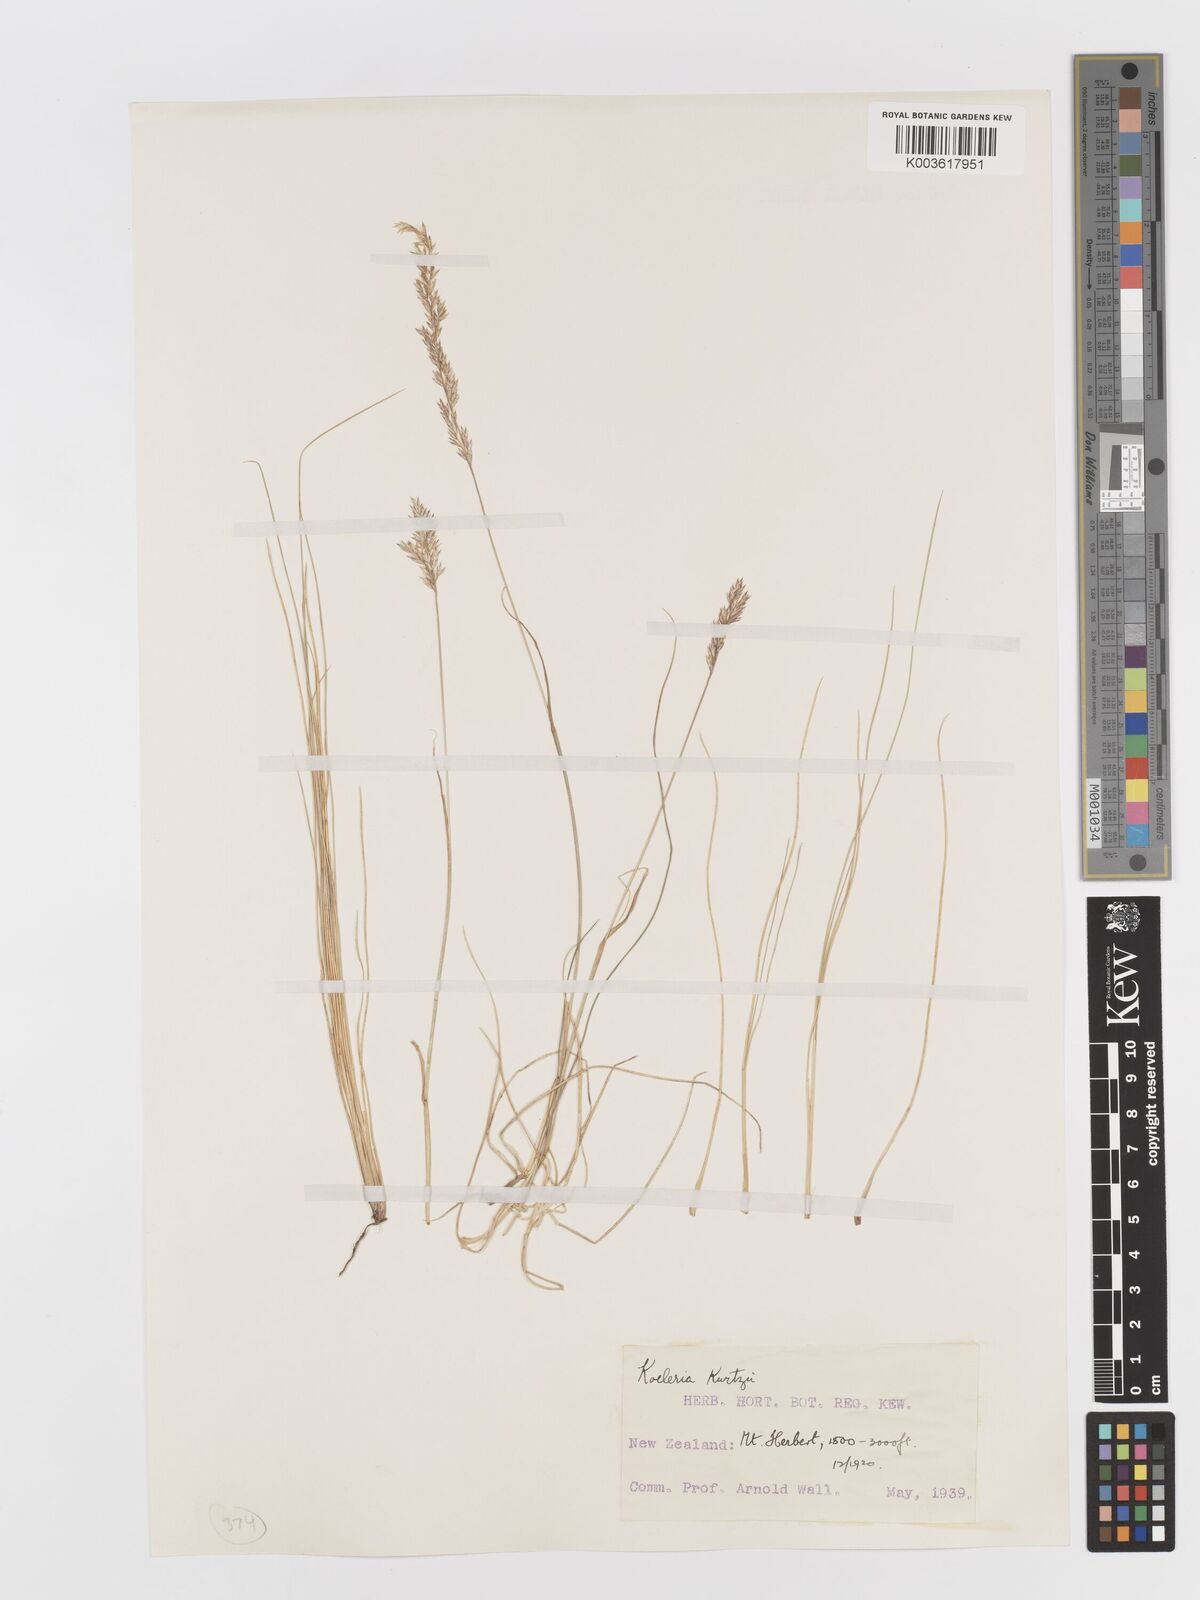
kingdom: Plantae
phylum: Tracheophyta
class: Liliopsida
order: Poales
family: Poaceae
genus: Koeleria
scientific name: Koeleria kurtzii
